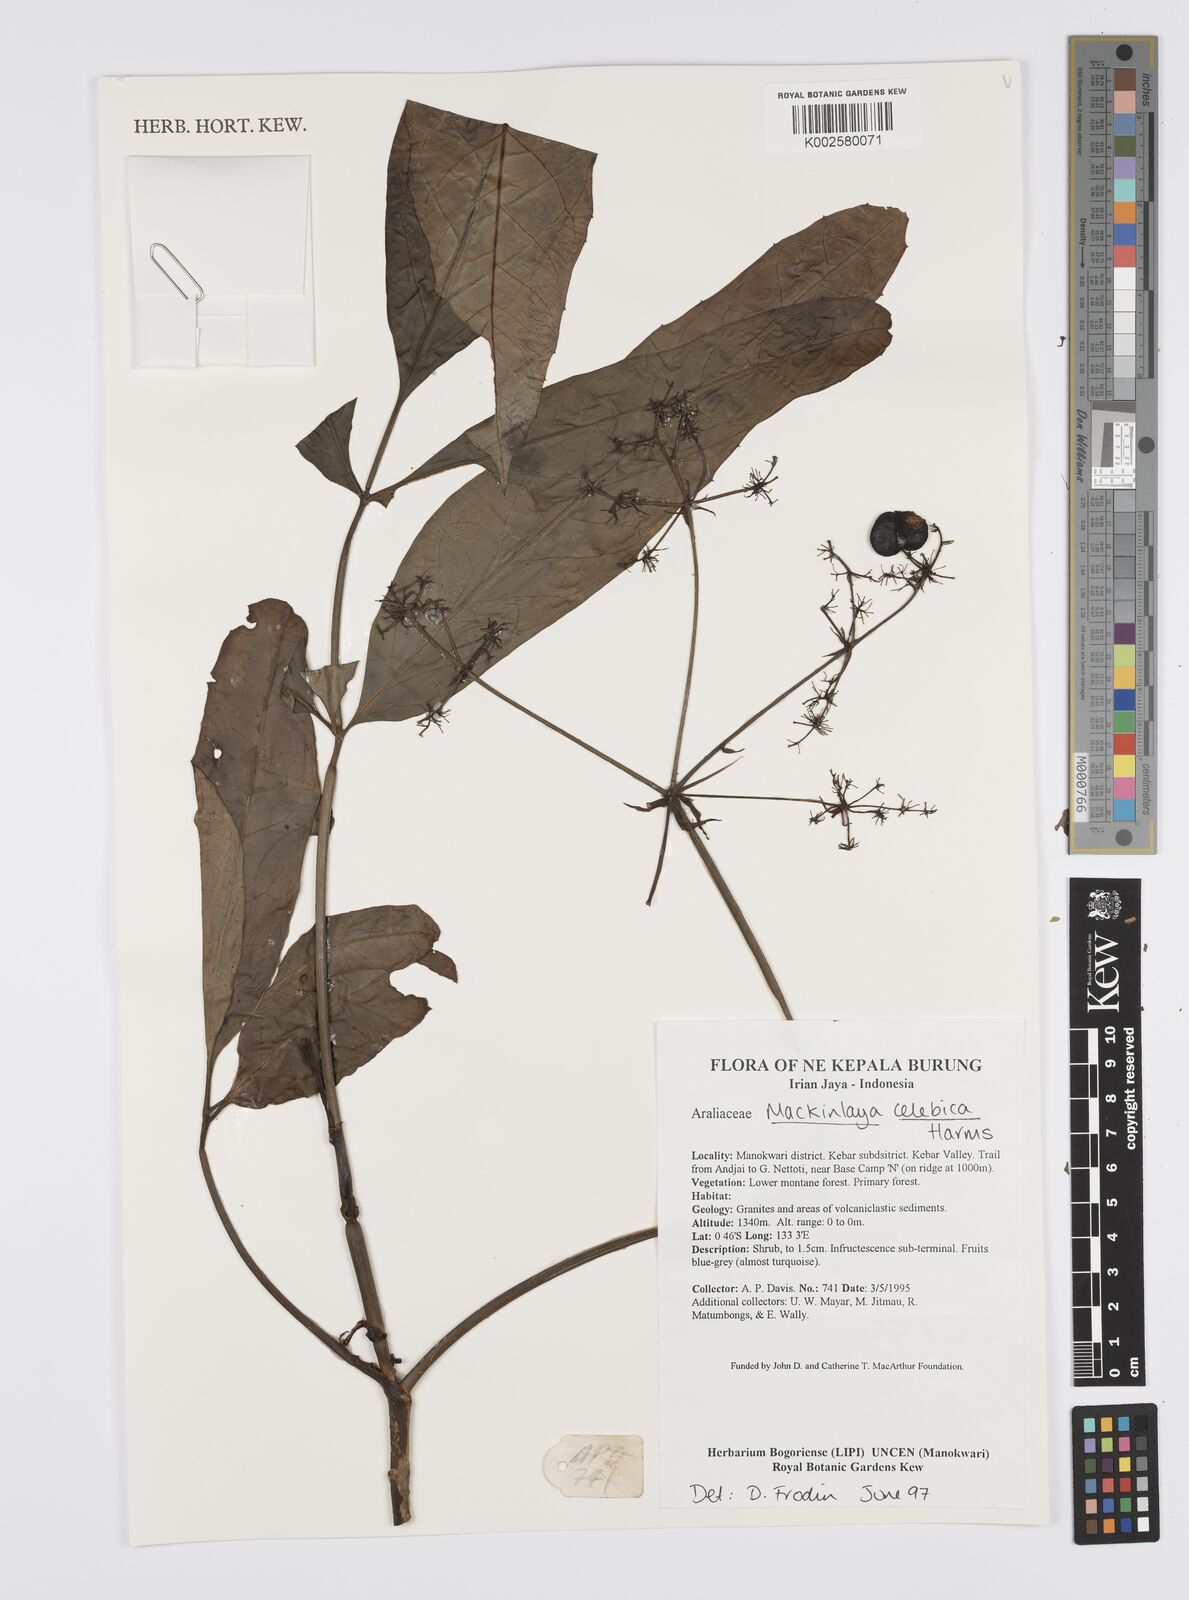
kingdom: Plantae
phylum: Tracheophyta
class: Magnoliopsida
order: Apiales
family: Apiaceae
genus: Mackinlaya
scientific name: Mackinlaya celebica
